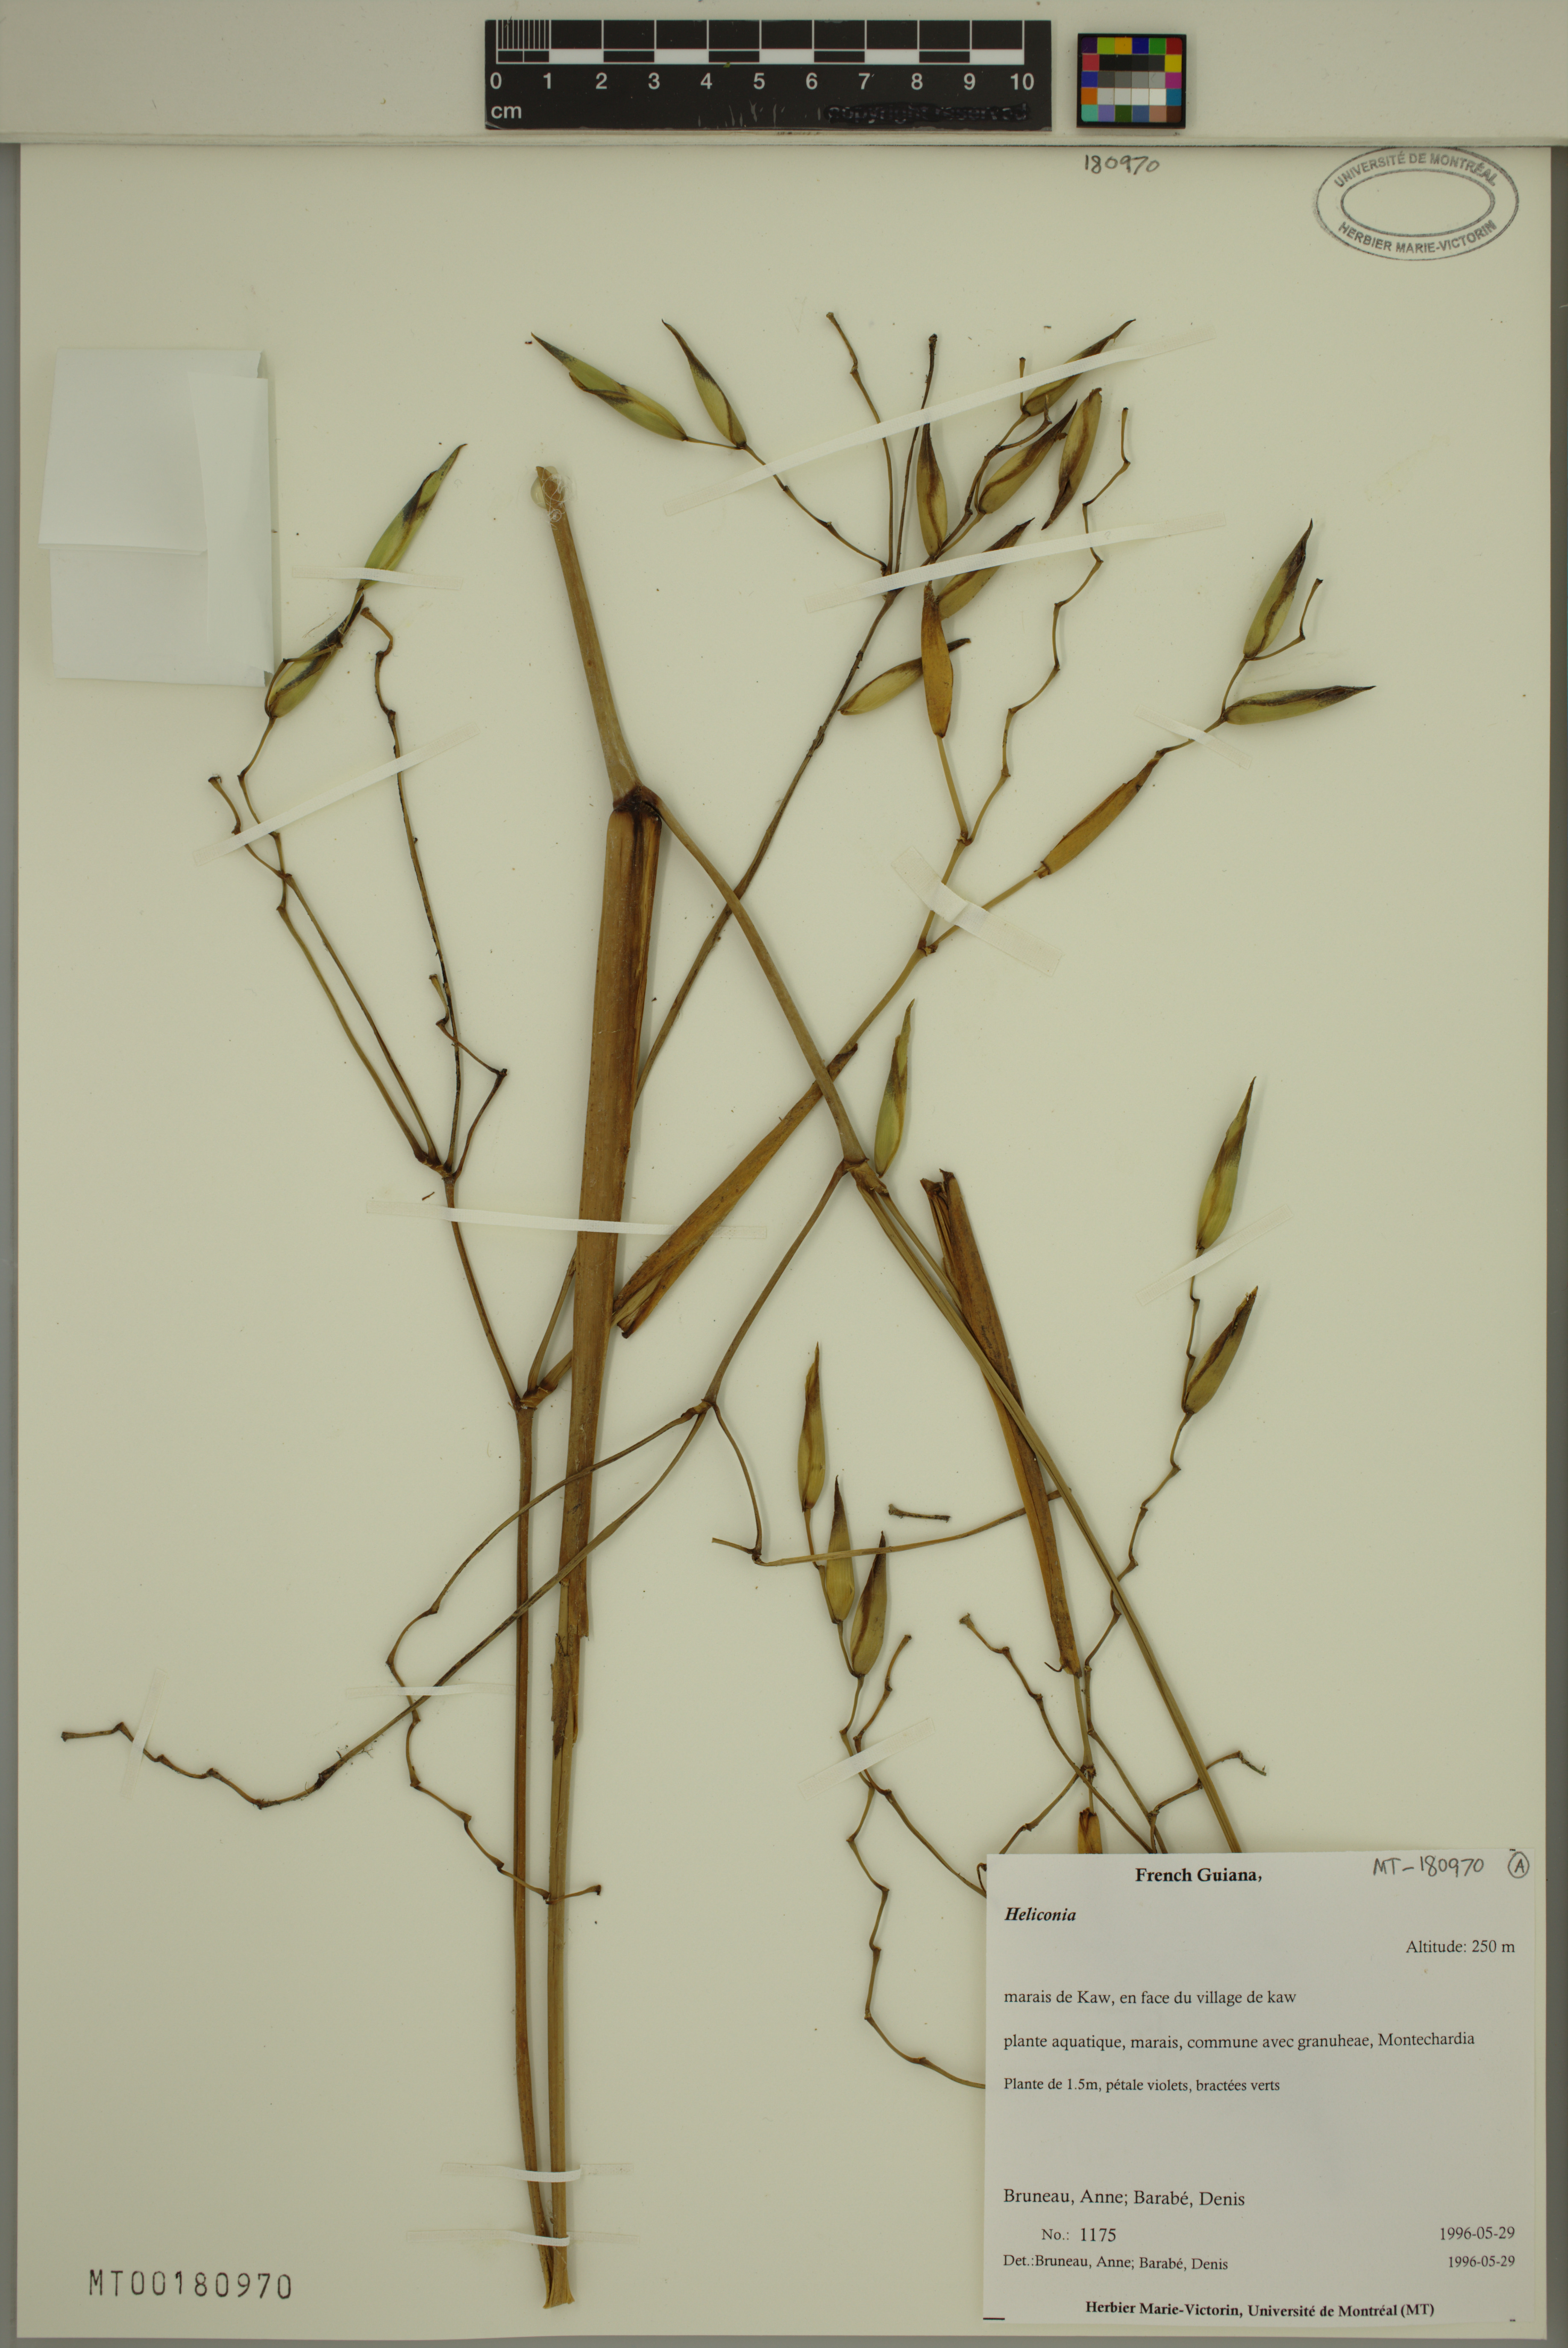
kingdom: Plantae
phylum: Tracheophyta
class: Liliopsida
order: Zingiberales
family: Heliconiaceae
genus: Heliconia
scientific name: Heliconia
